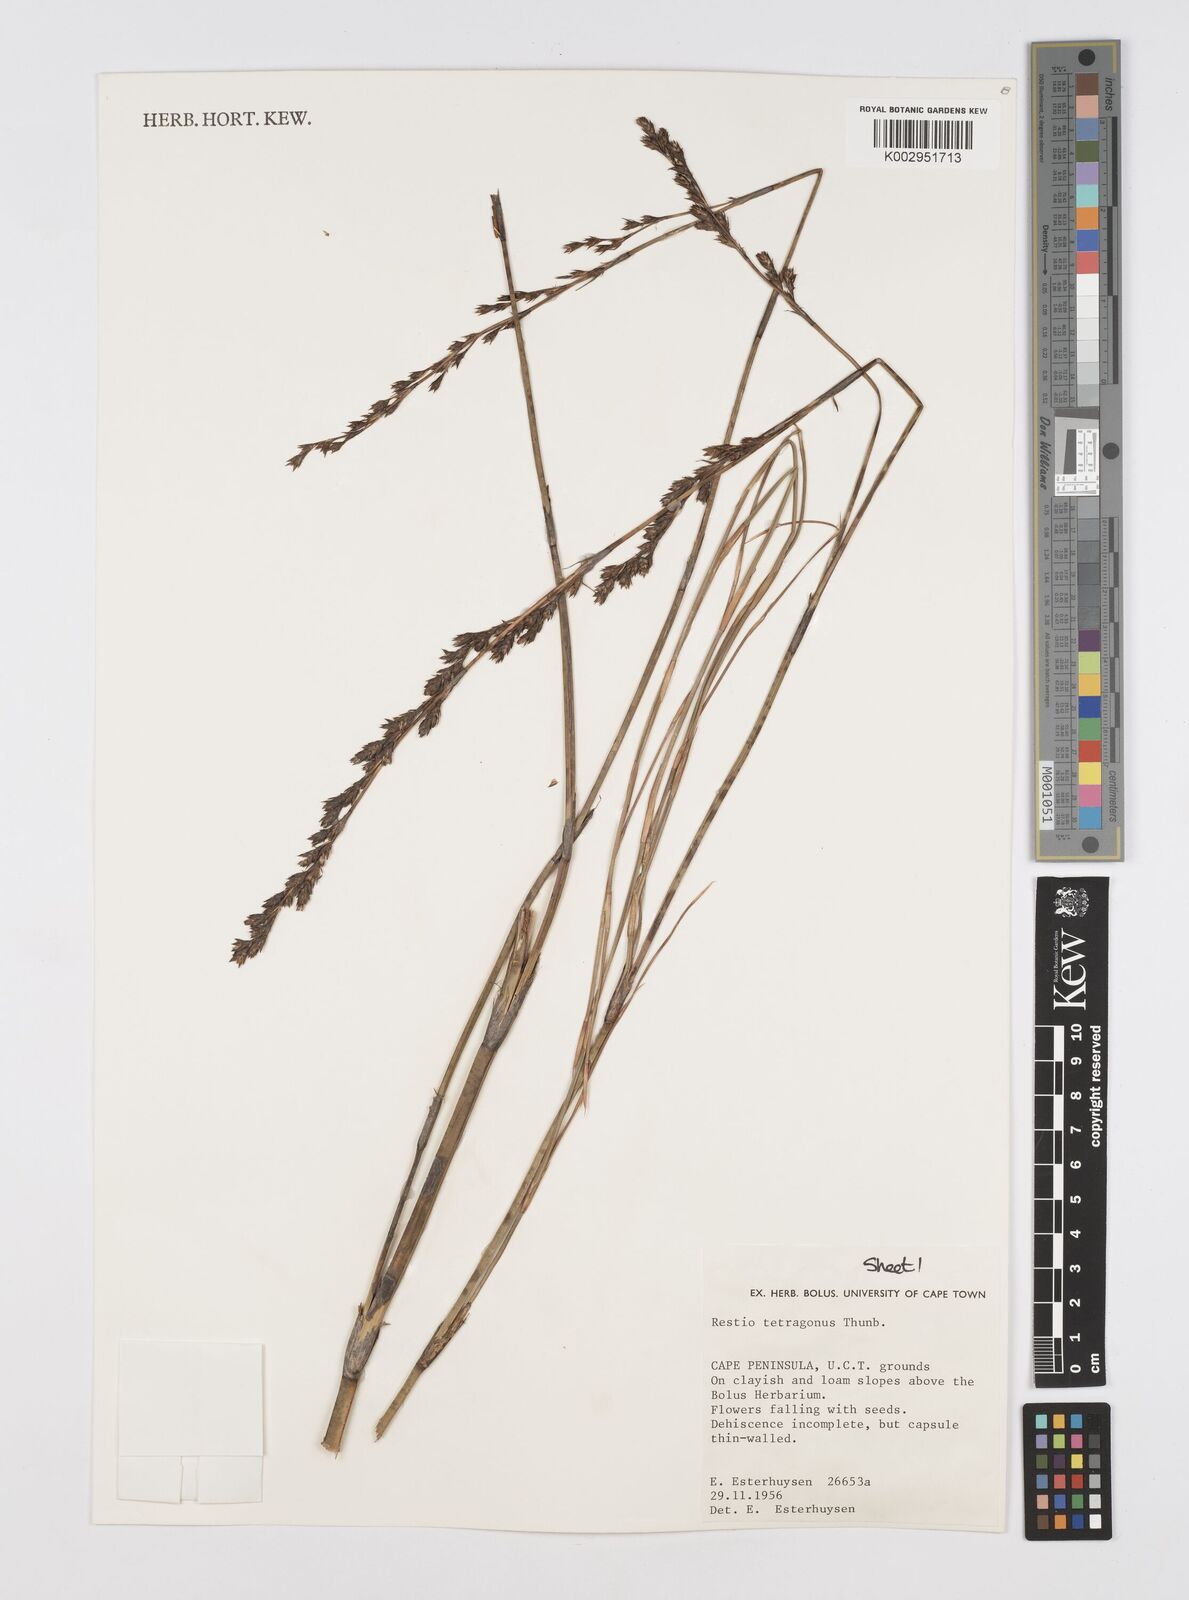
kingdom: Plantae
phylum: Tracheophyta
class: Liliopsida
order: Poales
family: Restionaceae
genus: Restio
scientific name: Restio tetragonus
